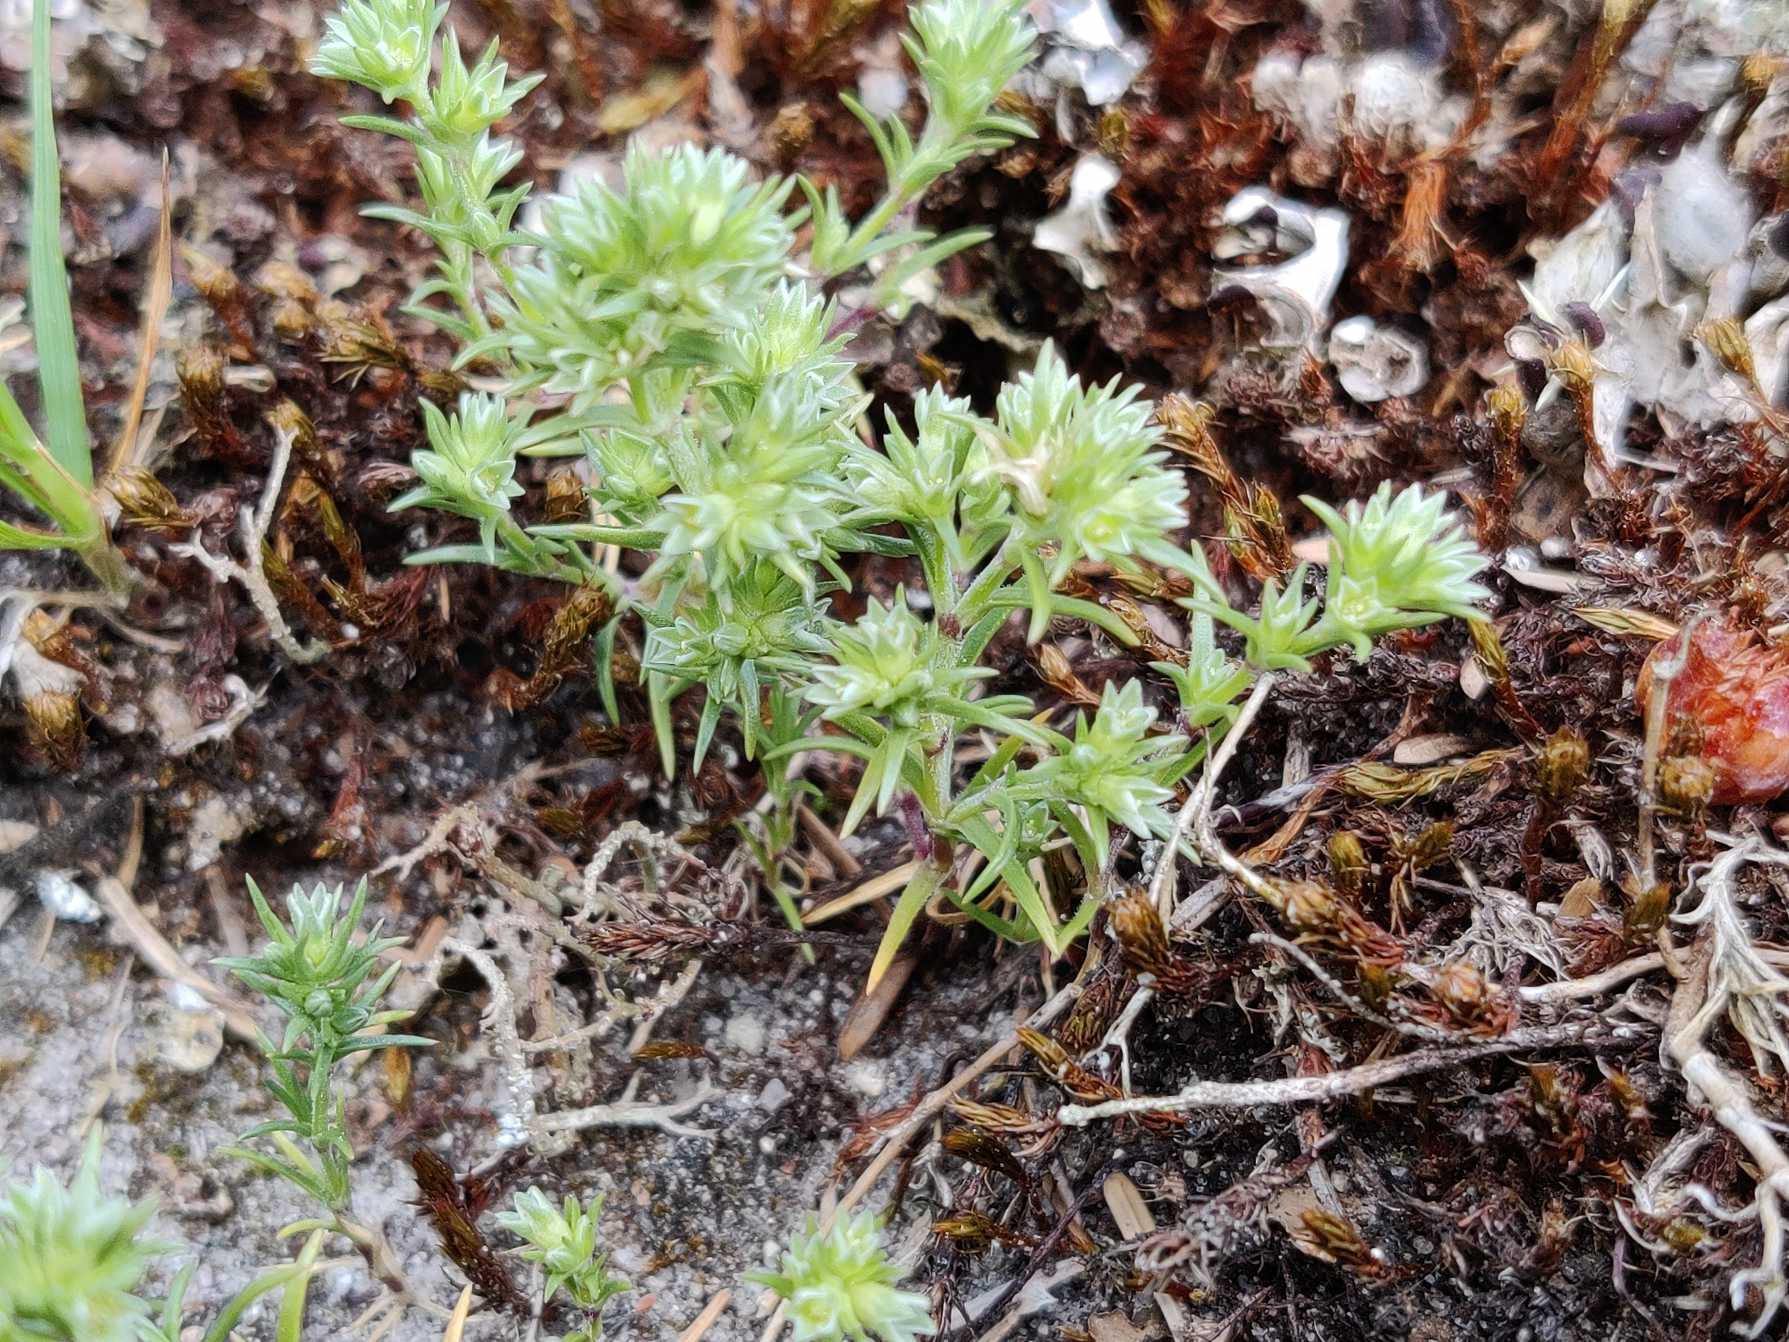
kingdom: Plantae
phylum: Tracheophyta
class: Magnoliopsida
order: Caryophyllales
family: Caryophyllaceae
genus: Scleranthus
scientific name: Scleranthus annuus
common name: Enårig knavel
